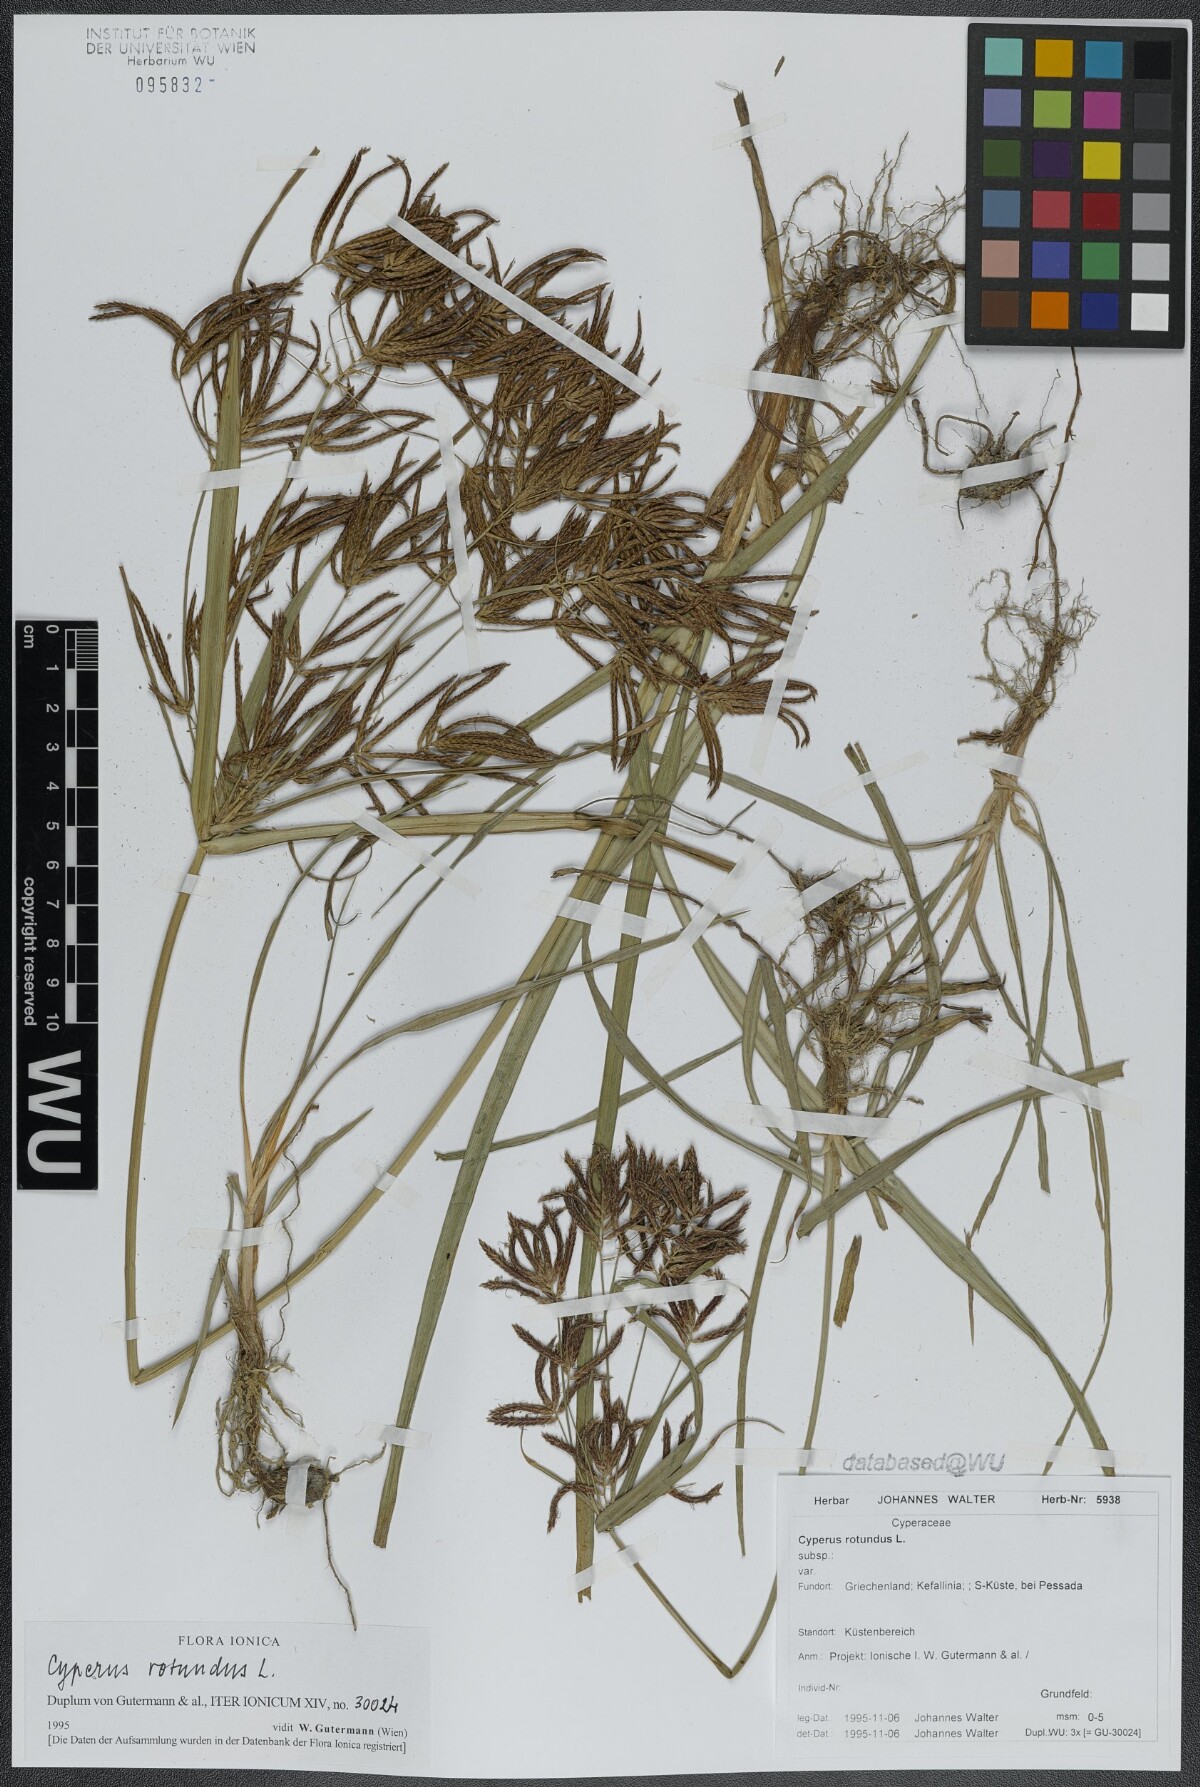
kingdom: Plantae
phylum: Tracheophyta
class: Liliopsida
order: Poales
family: Cyperaceae
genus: Cyperus
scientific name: Cyperus rotundus
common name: Nutgrass
